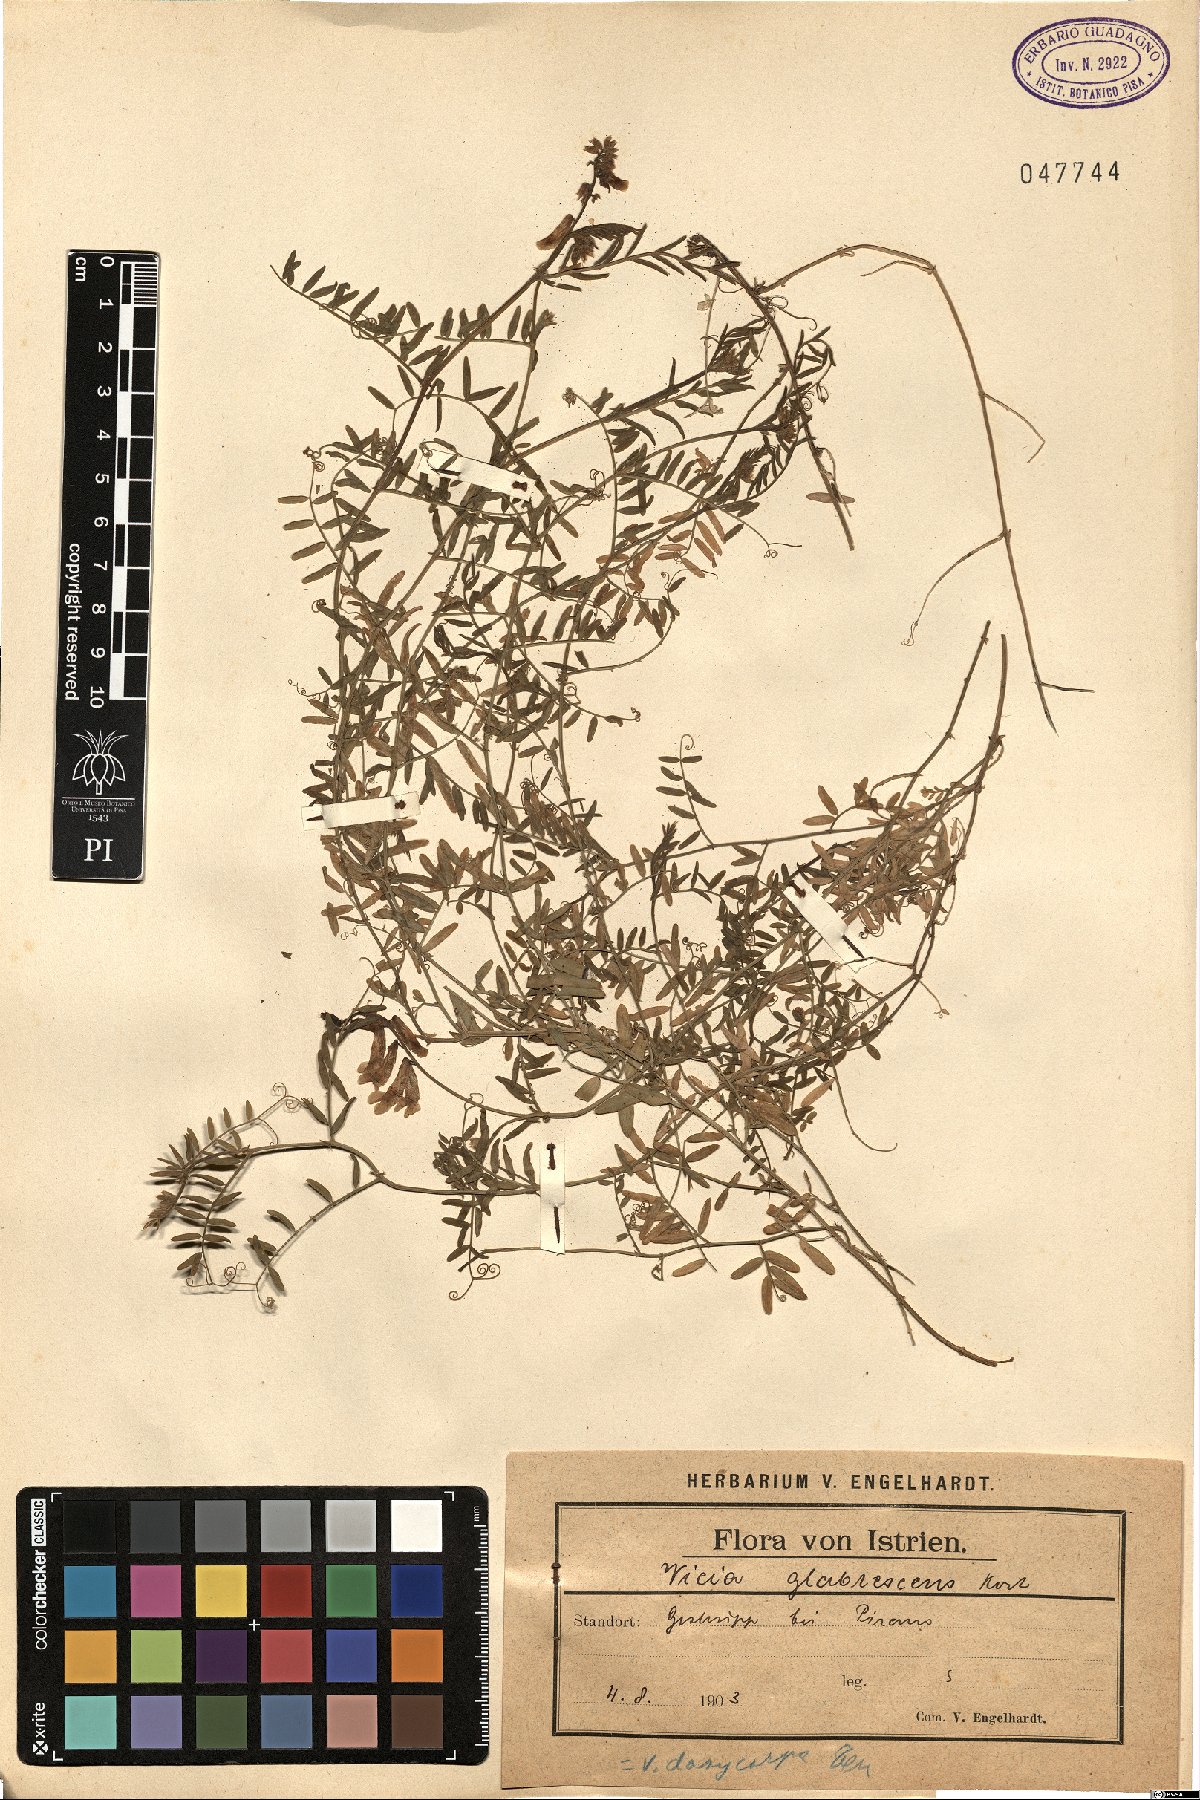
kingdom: Plantae
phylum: Tracheophyta
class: Magnoliopsida
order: Fabales
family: Fabaceae
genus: Vicia
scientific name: Vicia villosa
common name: Fodder vetch
